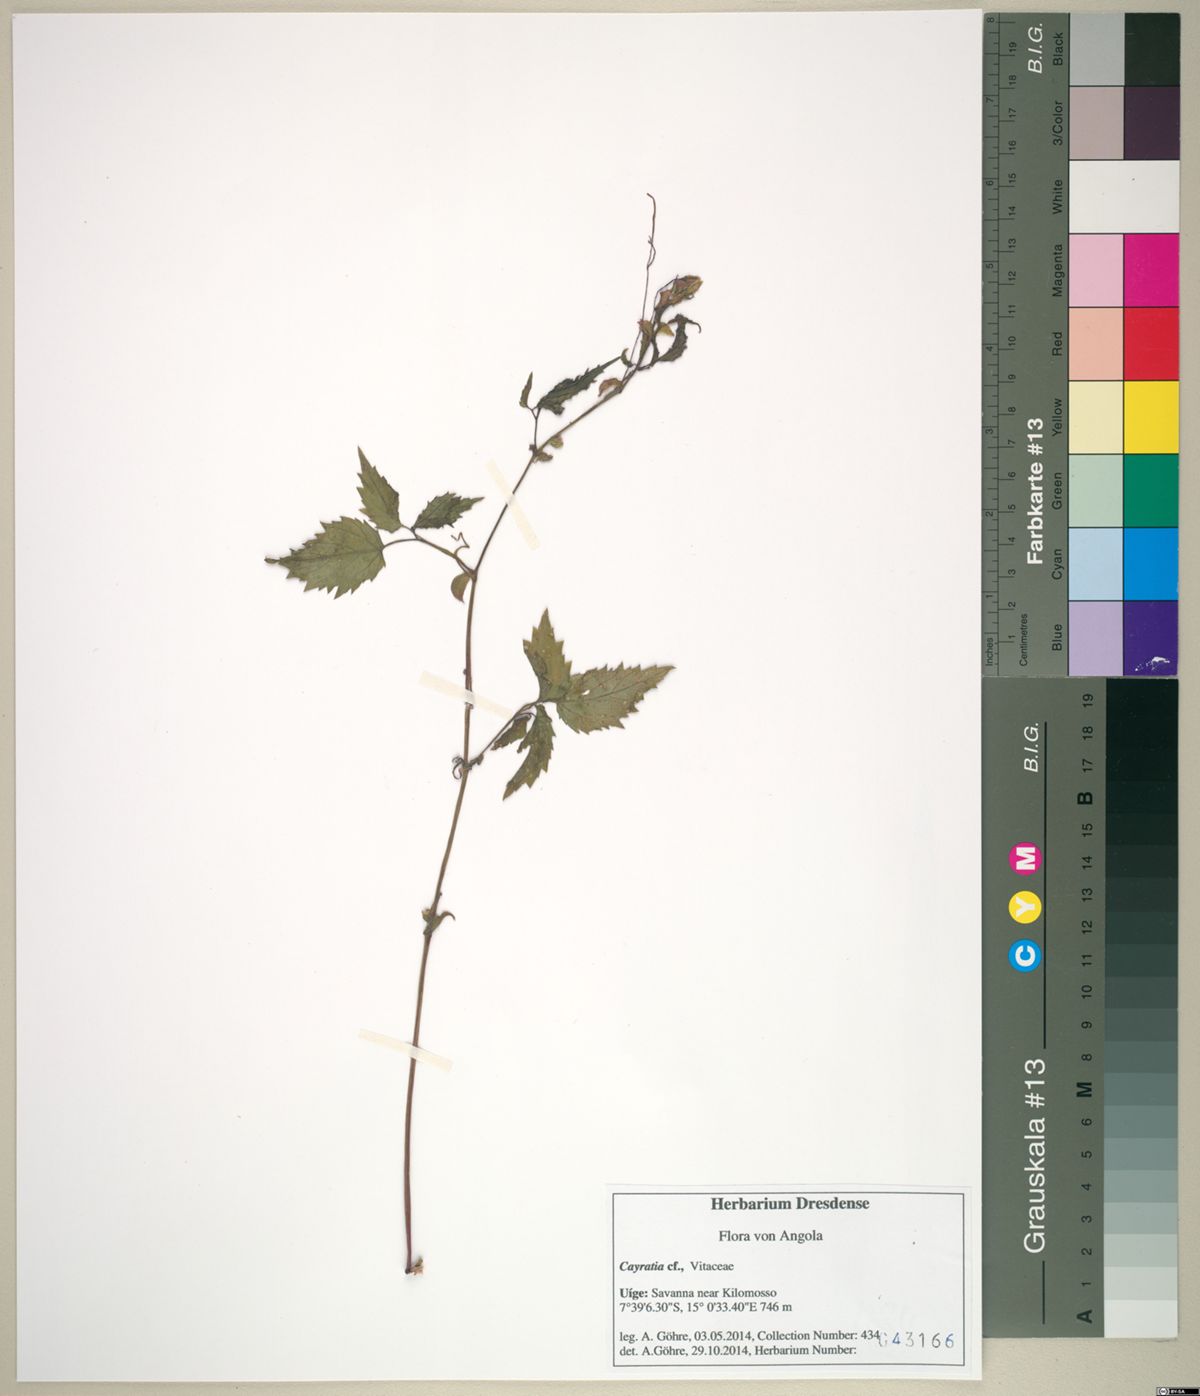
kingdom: Plantae
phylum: Tracheophyta
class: Magnoliopsida
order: Vitales
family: Vitaceae
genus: Cayratia
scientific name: Cayratia
